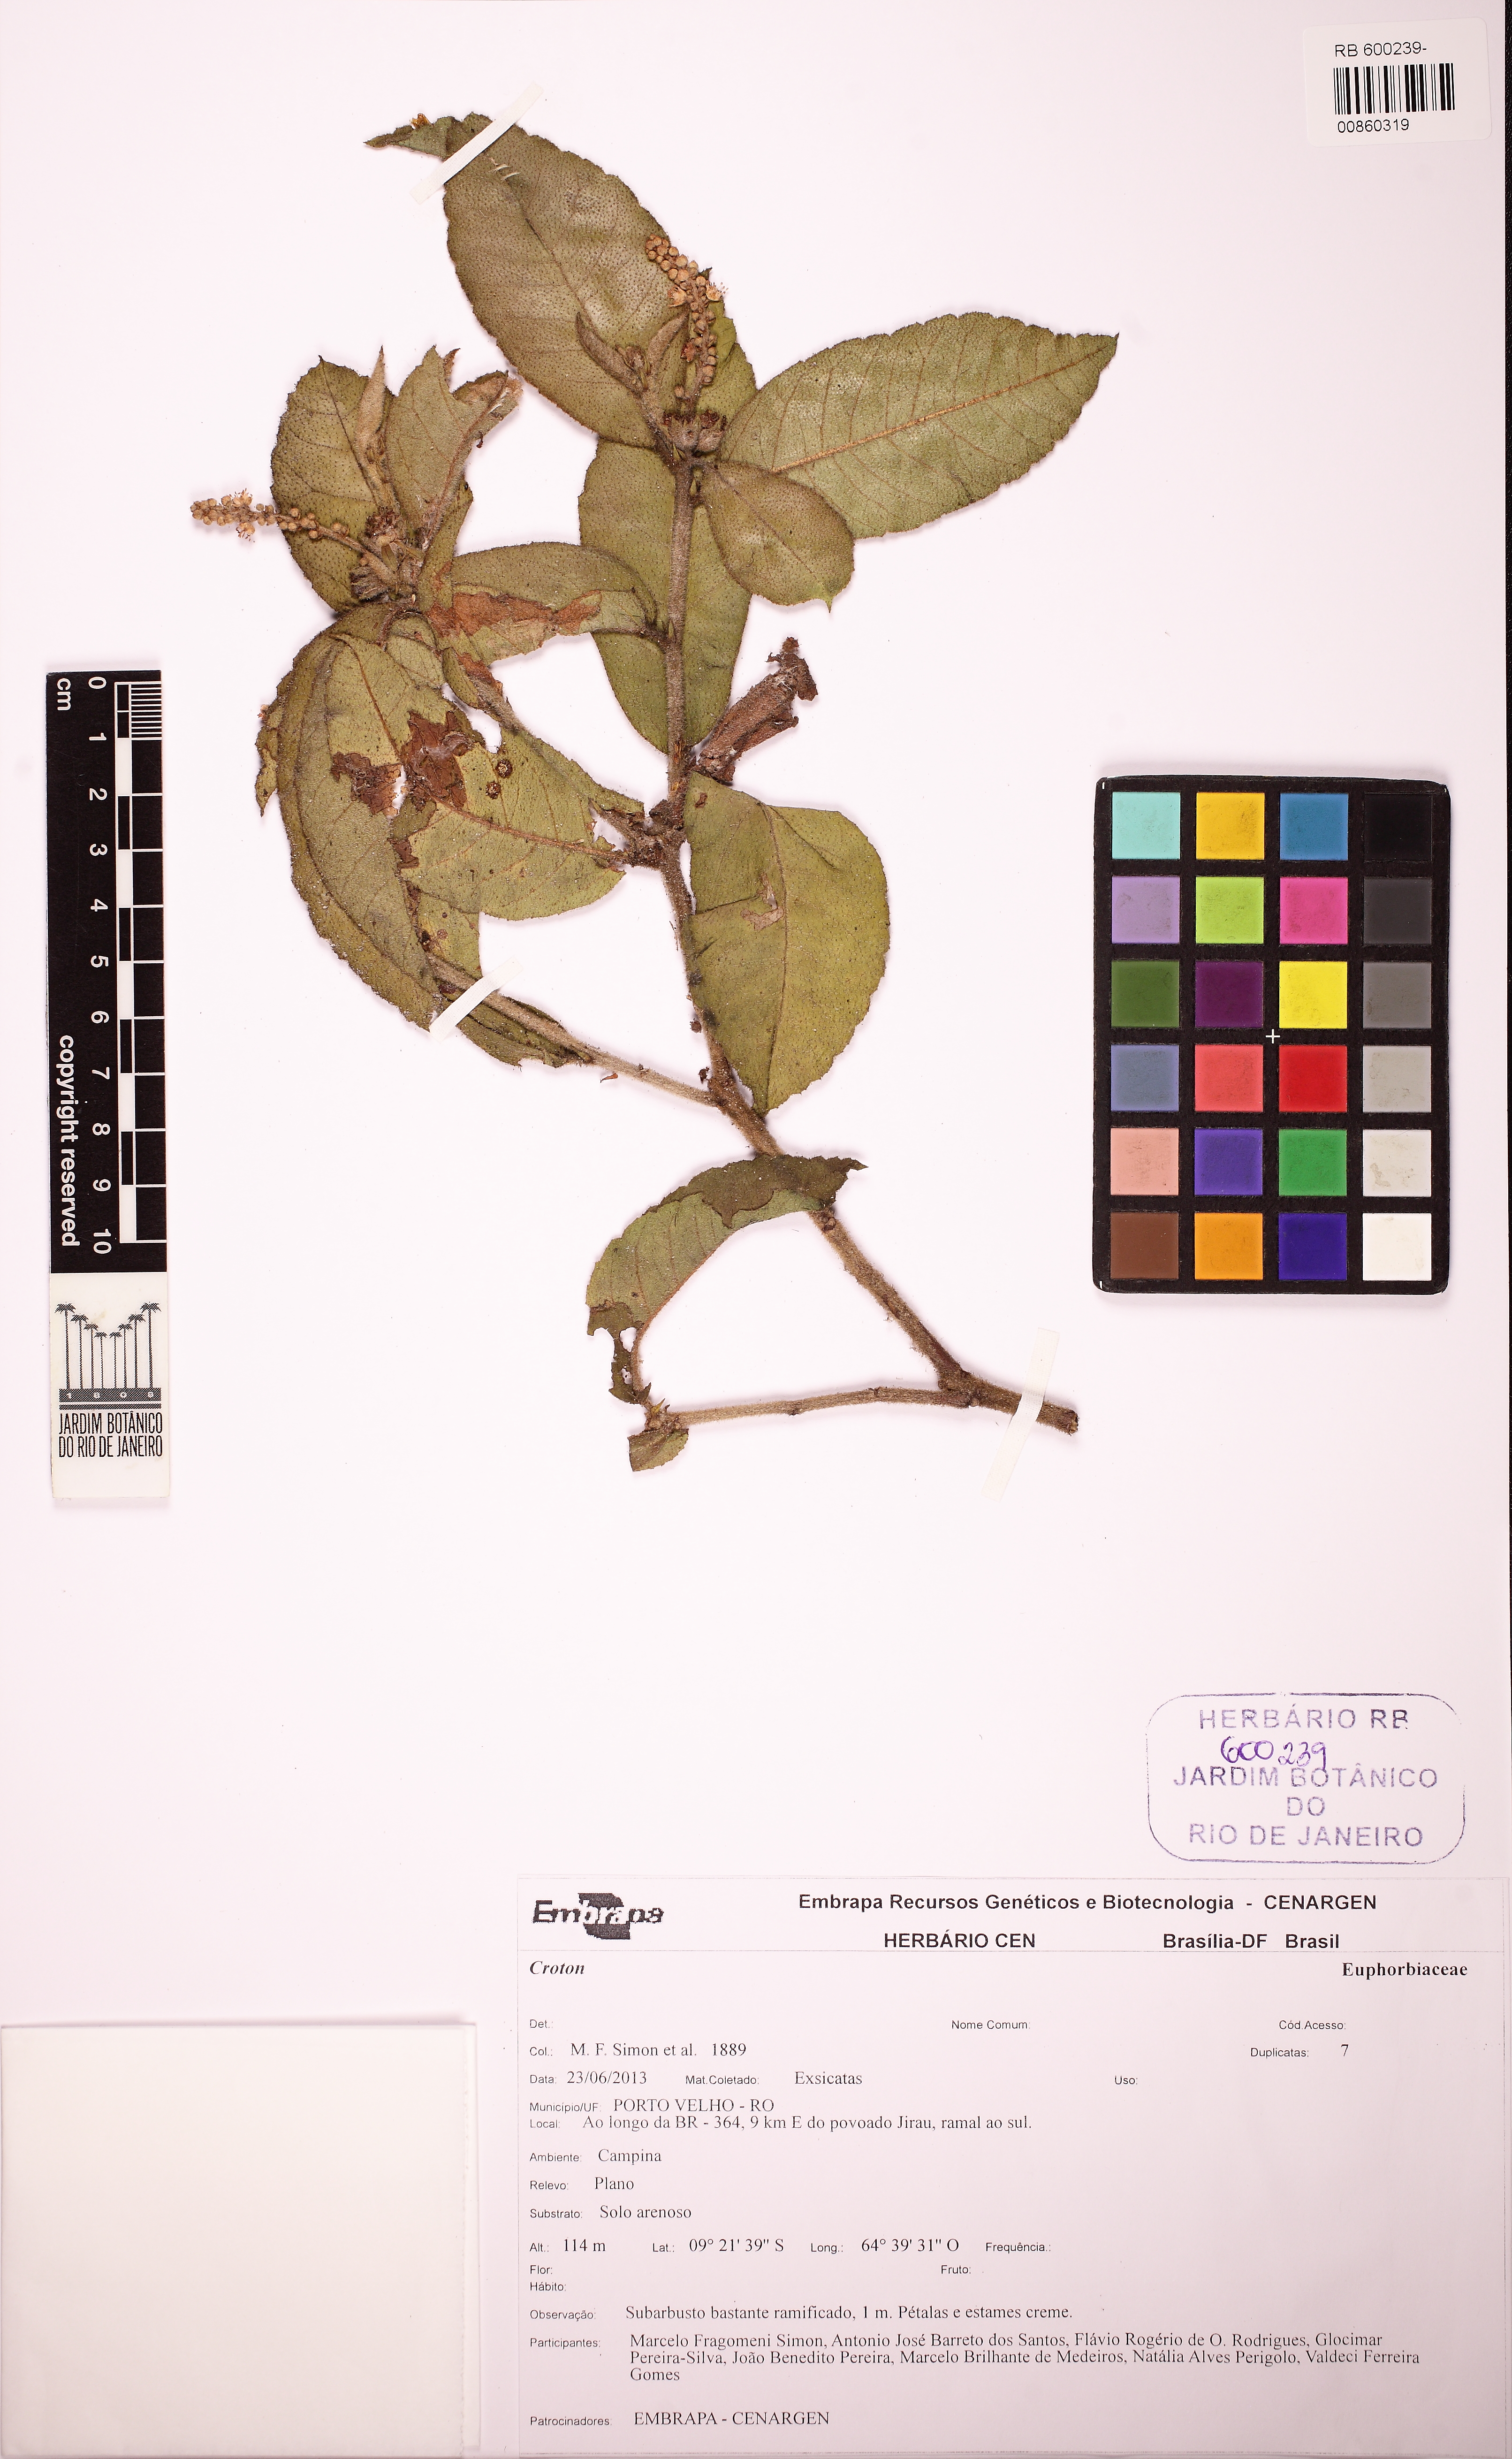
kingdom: Plantae
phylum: Tracheophyta
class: Magnoliopsida
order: Malpighiales
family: Euphorbiaceae
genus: Croton
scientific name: Croton krukoffianus
